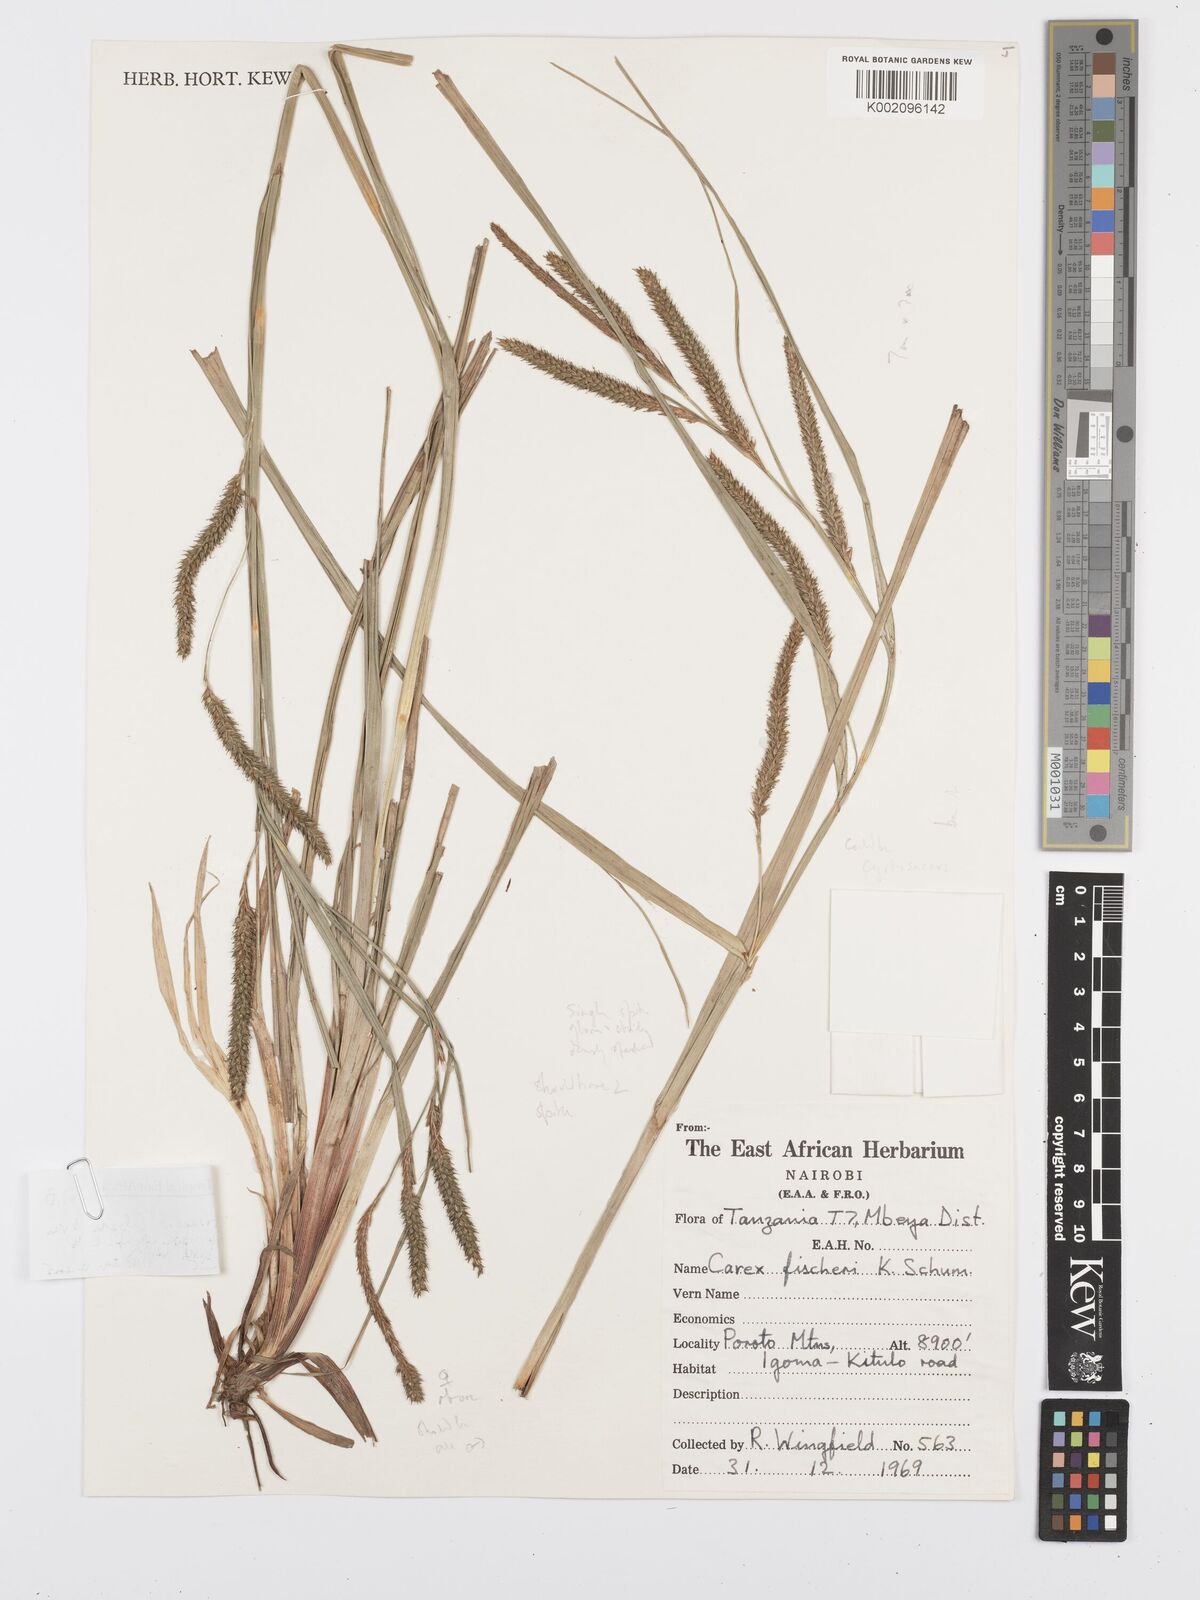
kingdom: Plantae
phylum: Tracheophyta
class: Liliopsida
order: Poales
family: Cyperaceae
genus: Carex
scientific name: Carex
